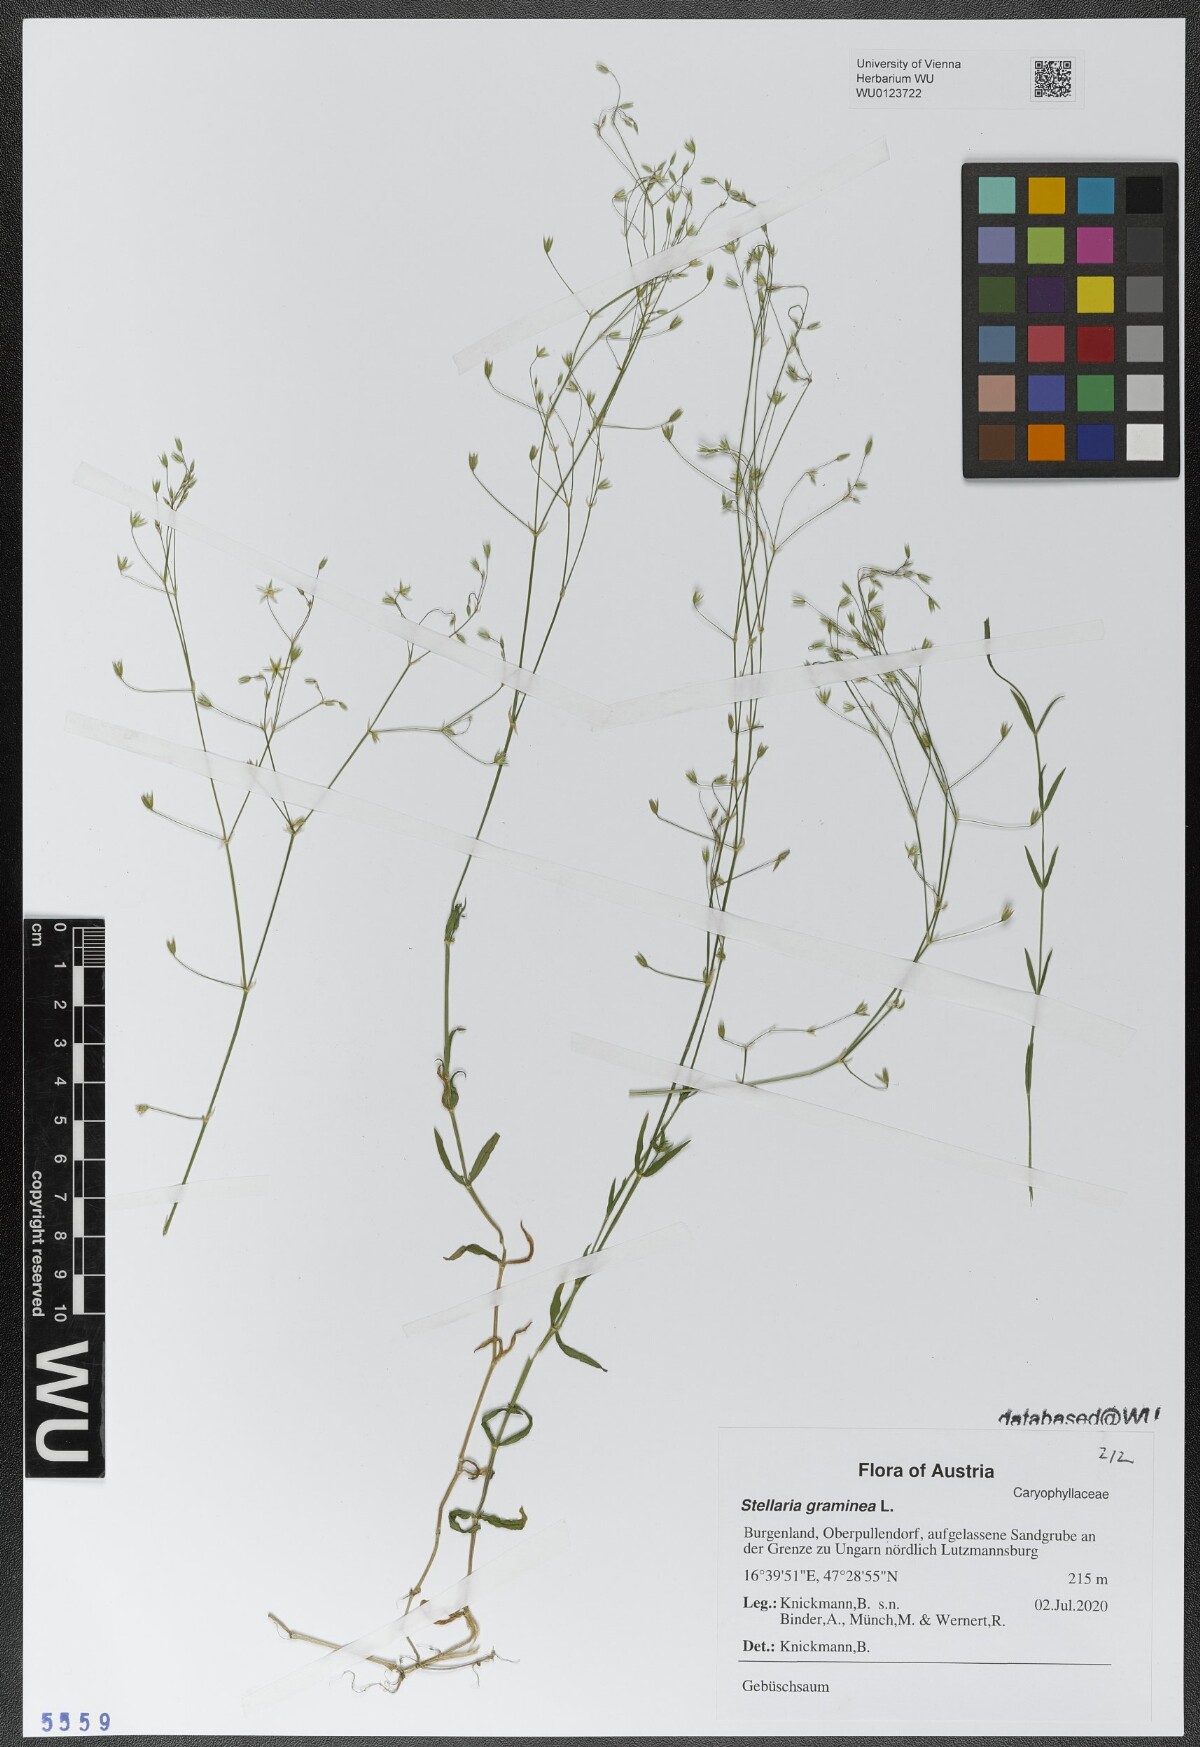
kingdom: Plantae
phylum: Tracheophyta
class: Magnoliopsida
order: Caryophyllales
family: Caryophyllaceae
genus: Stellaria
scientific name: Stellaria graminea
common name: Grass-like starwort
